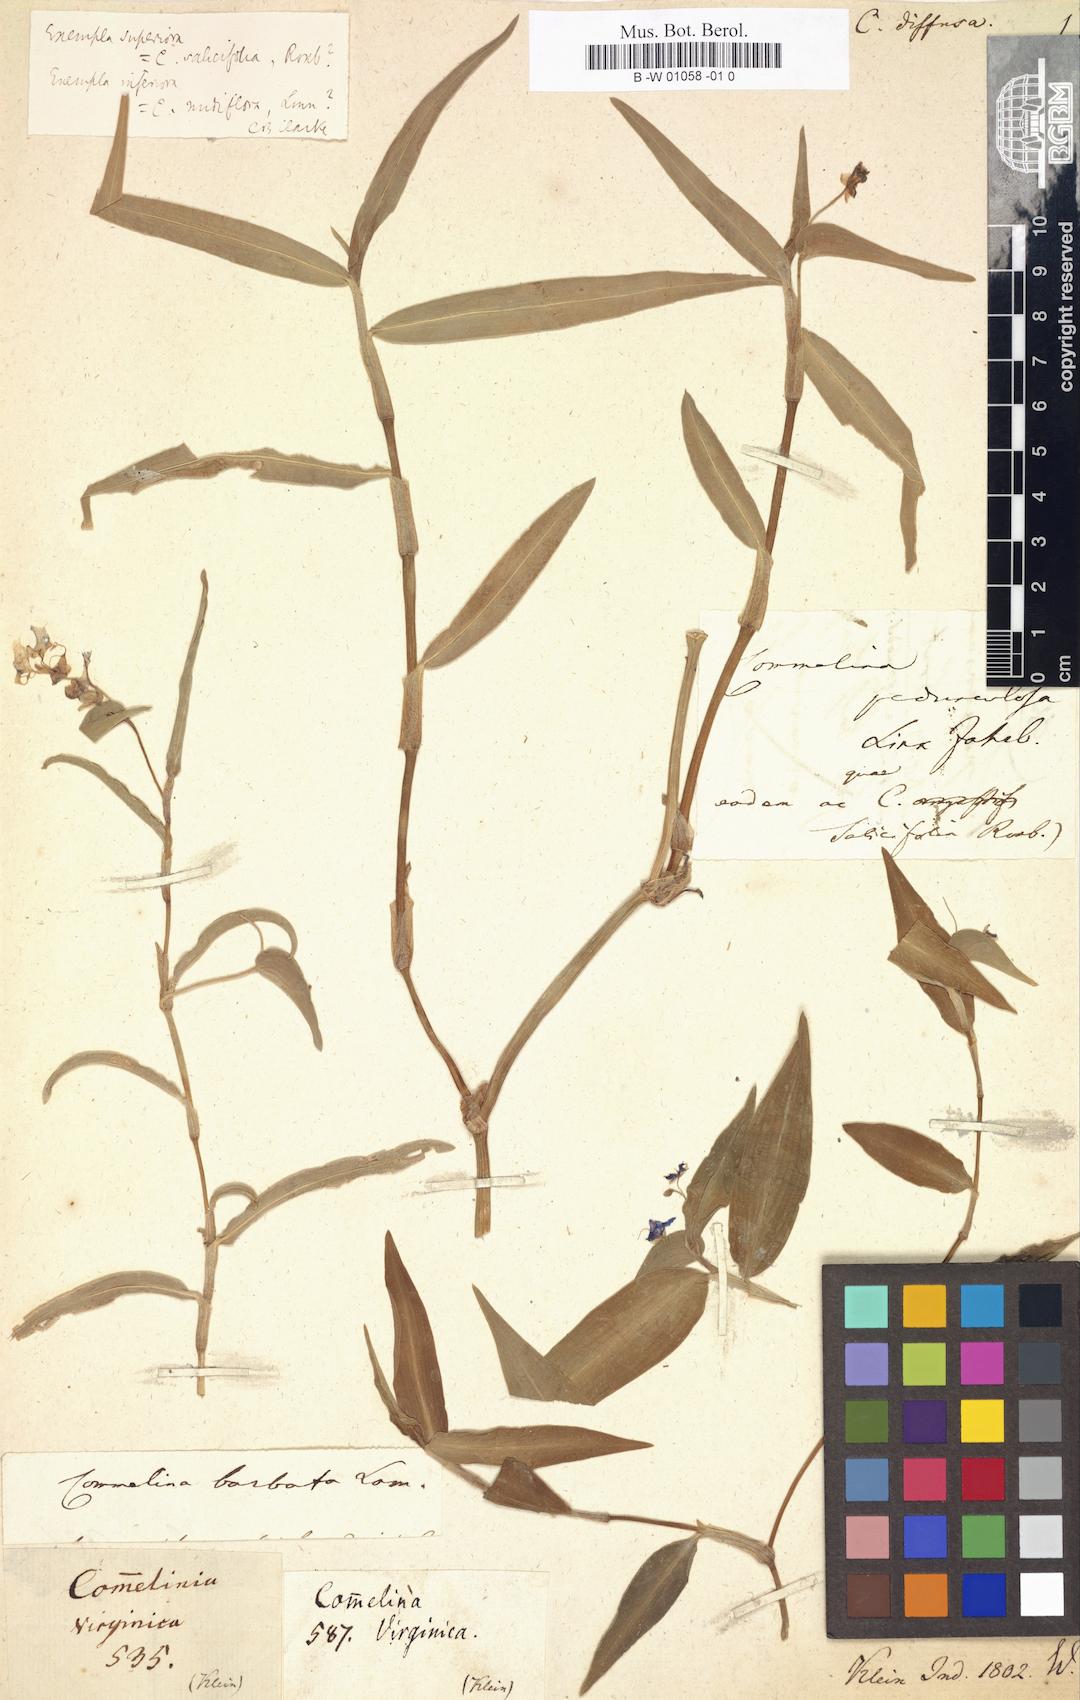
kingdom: Plantae
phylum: Tracheophyta
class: Liliopsida
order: Commelinales
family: Commelinaceae
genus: Commelina
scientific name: Commelina diffusa
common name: Climbing dayflower
